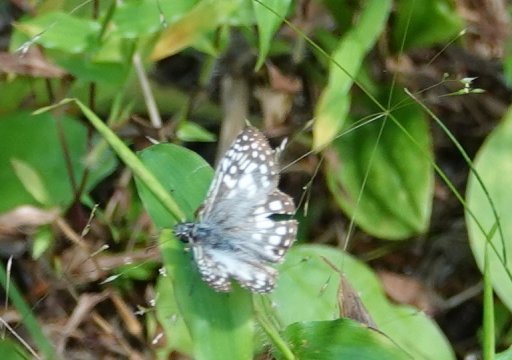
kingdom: Animalia
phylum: Arthropoda
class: Insecta
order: Lepidoptera
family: Hesperiidae
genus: Pyrgus
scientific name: Pyrgus oileus
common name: Tropical Checkered-Skipper
